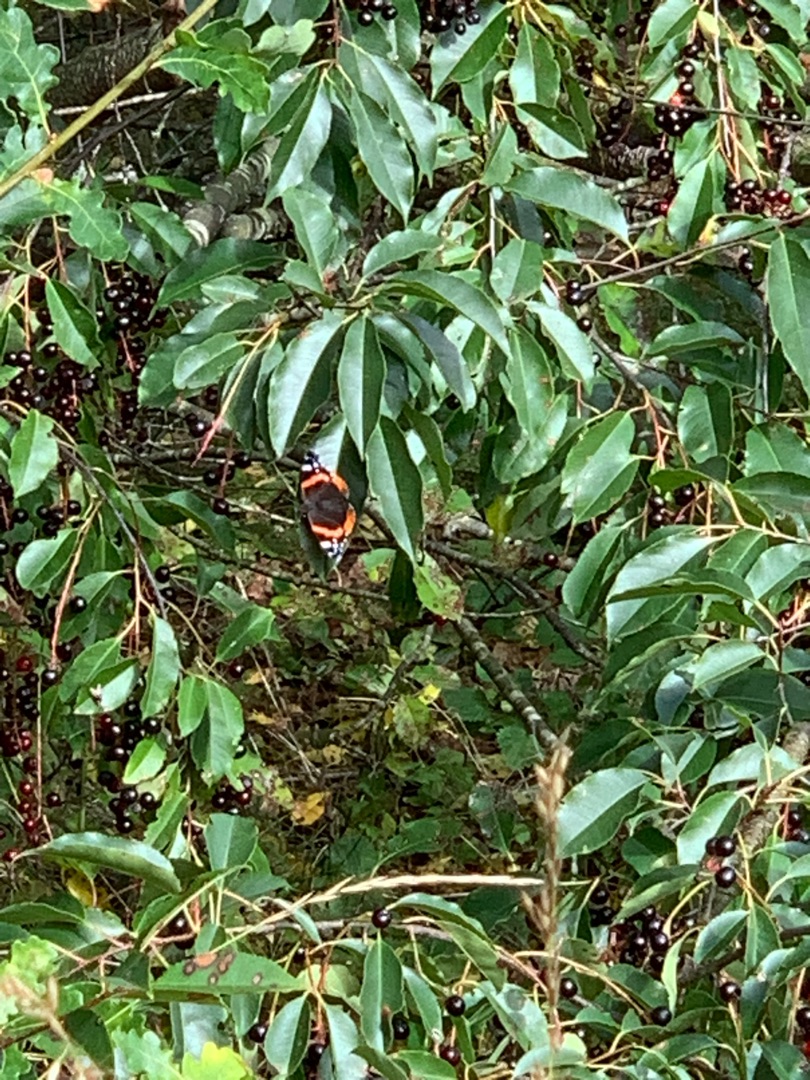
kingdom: Animalia
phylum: Arthropoda
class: Insecta
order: Lepidoptera
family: Nymphalidae
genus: Vanessa
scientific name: Vanessa atalanta
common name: Admiral
